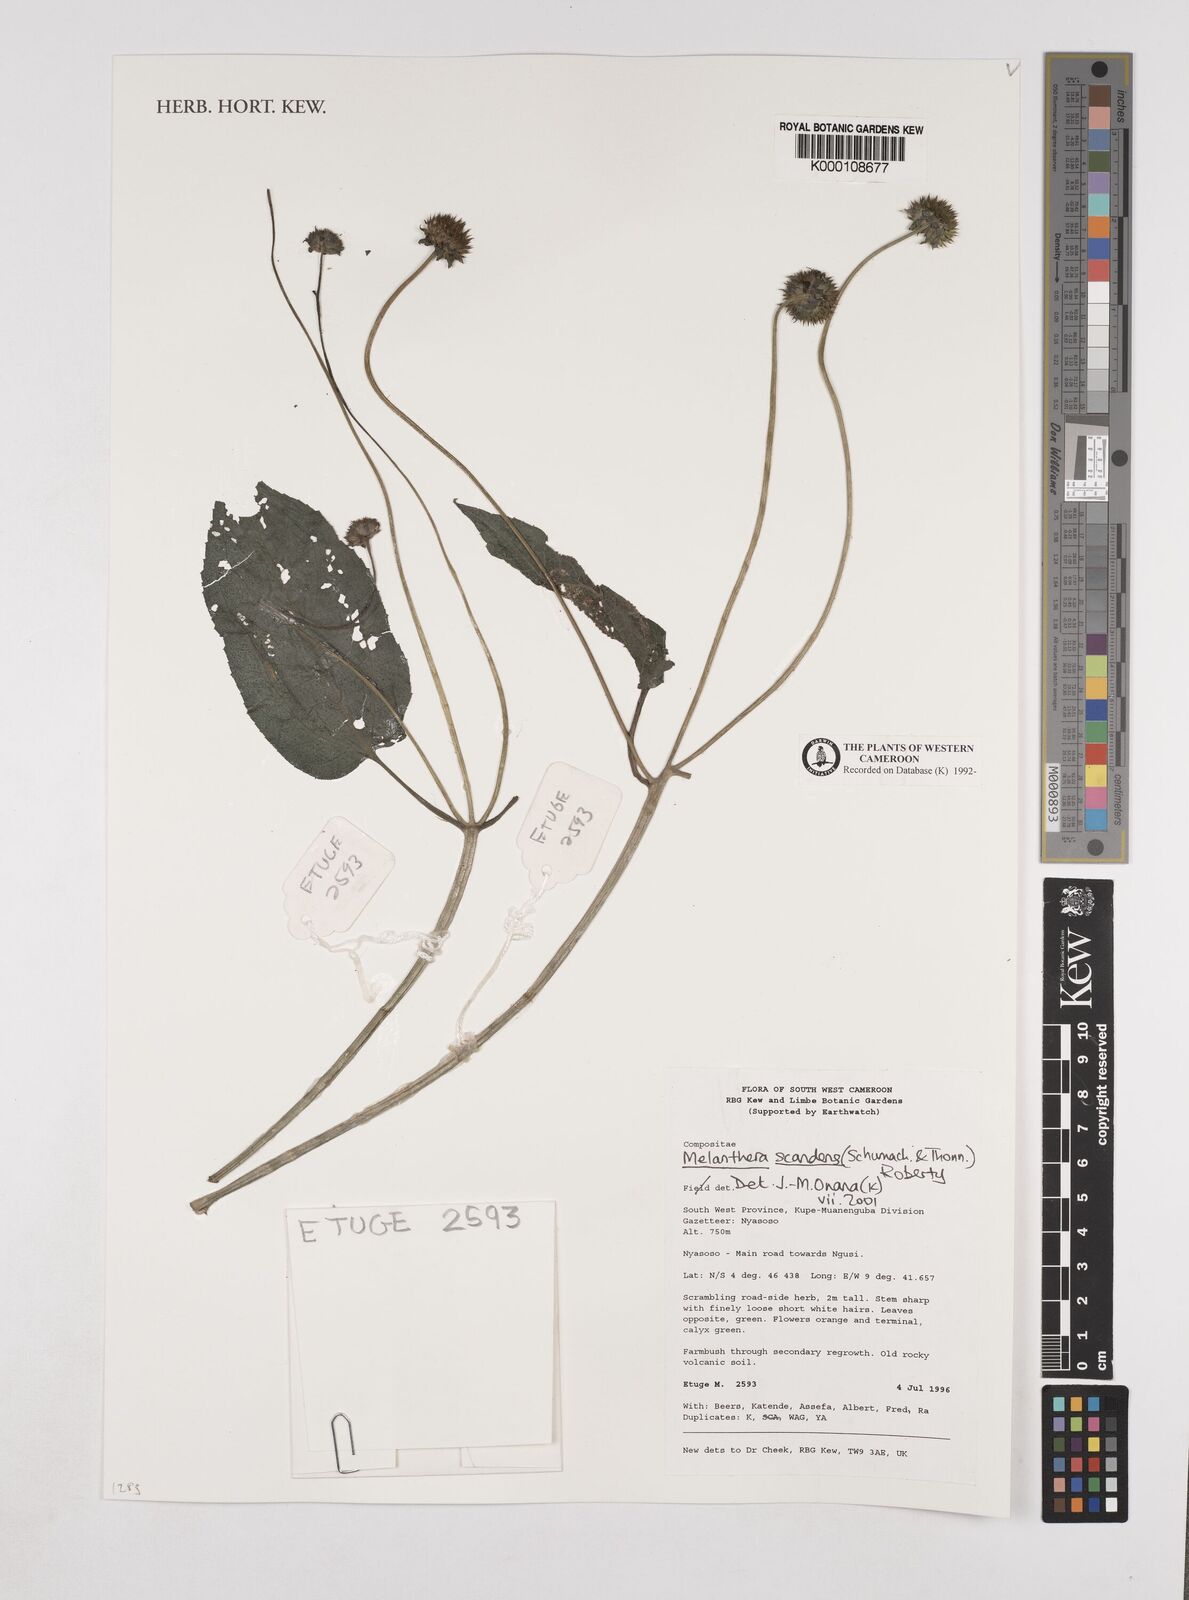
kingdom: Plantae
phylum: Tracheophyta
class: Magnoliopsida
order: Asterales
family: Asteraceae
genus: Melanthera
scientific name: Melanthera
